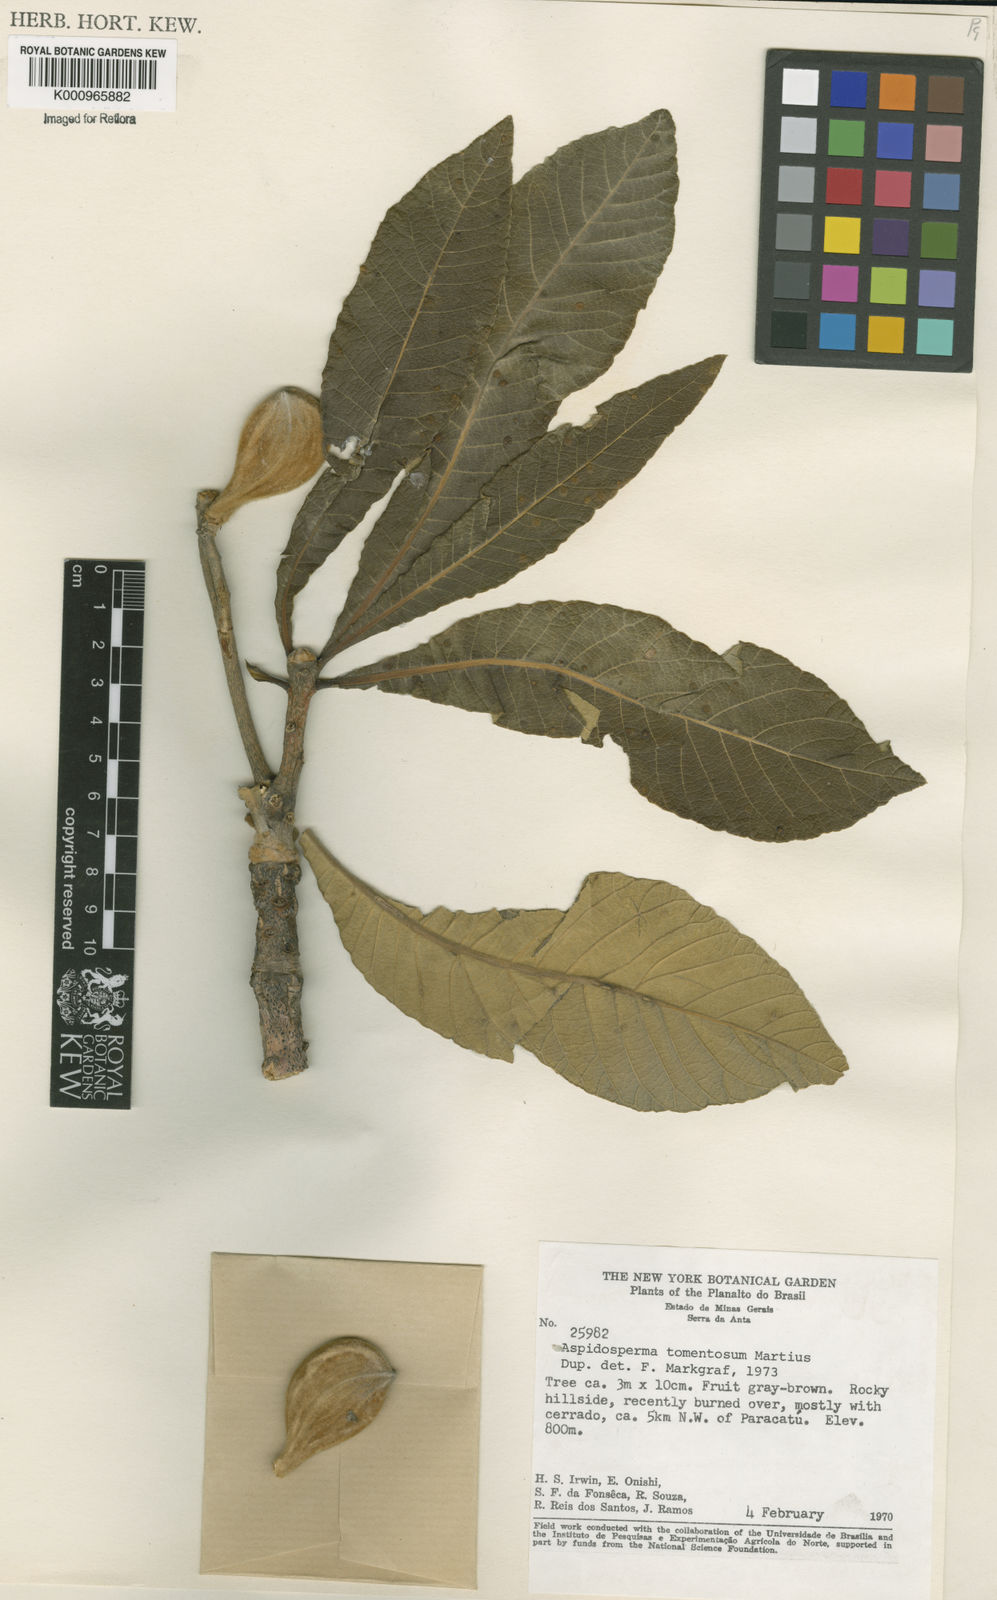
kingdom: Plantae
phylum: Tracheophyta
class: Magnoliopsida
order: Gentianales
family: Apocynaceae
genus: Aspidosperma
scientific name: Aspidosperma tomentosum
